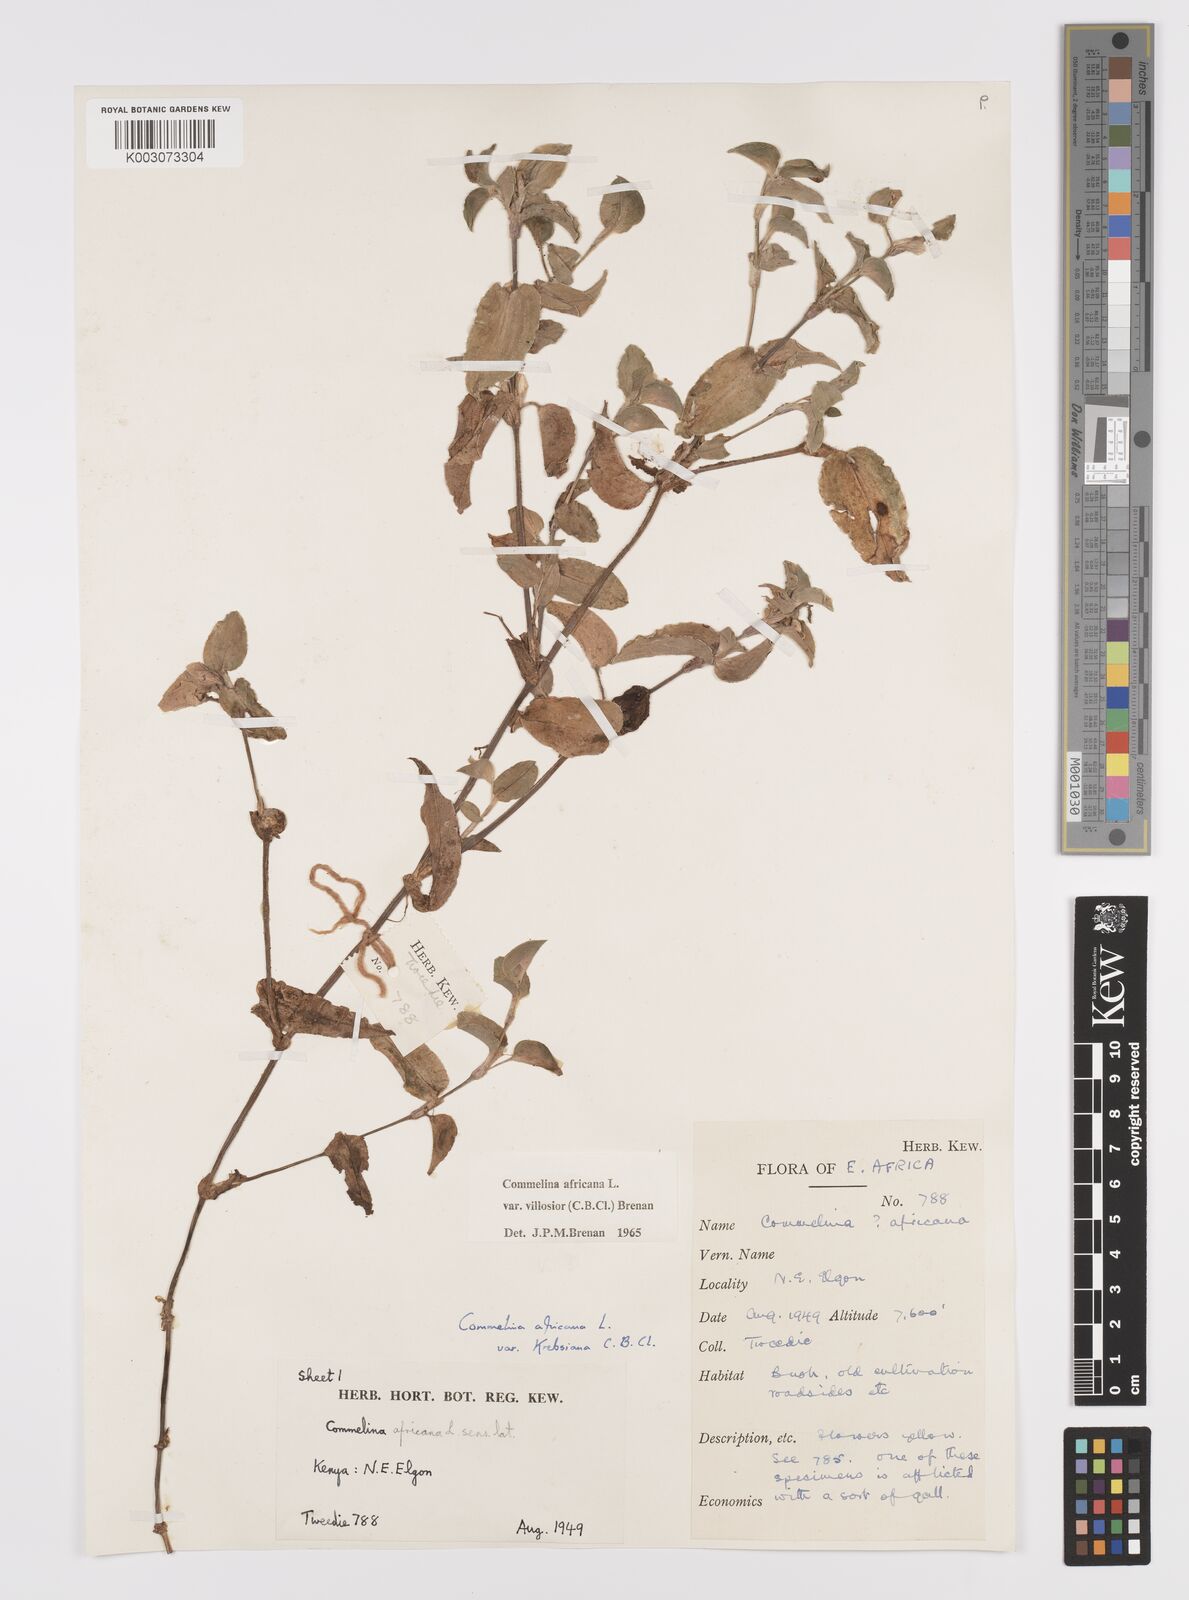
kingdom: Plantae
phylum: Tracheophyta
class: Liliopsida
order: Commelinales
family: Commelinaceae
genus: Commelina
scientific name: Commelina africana
